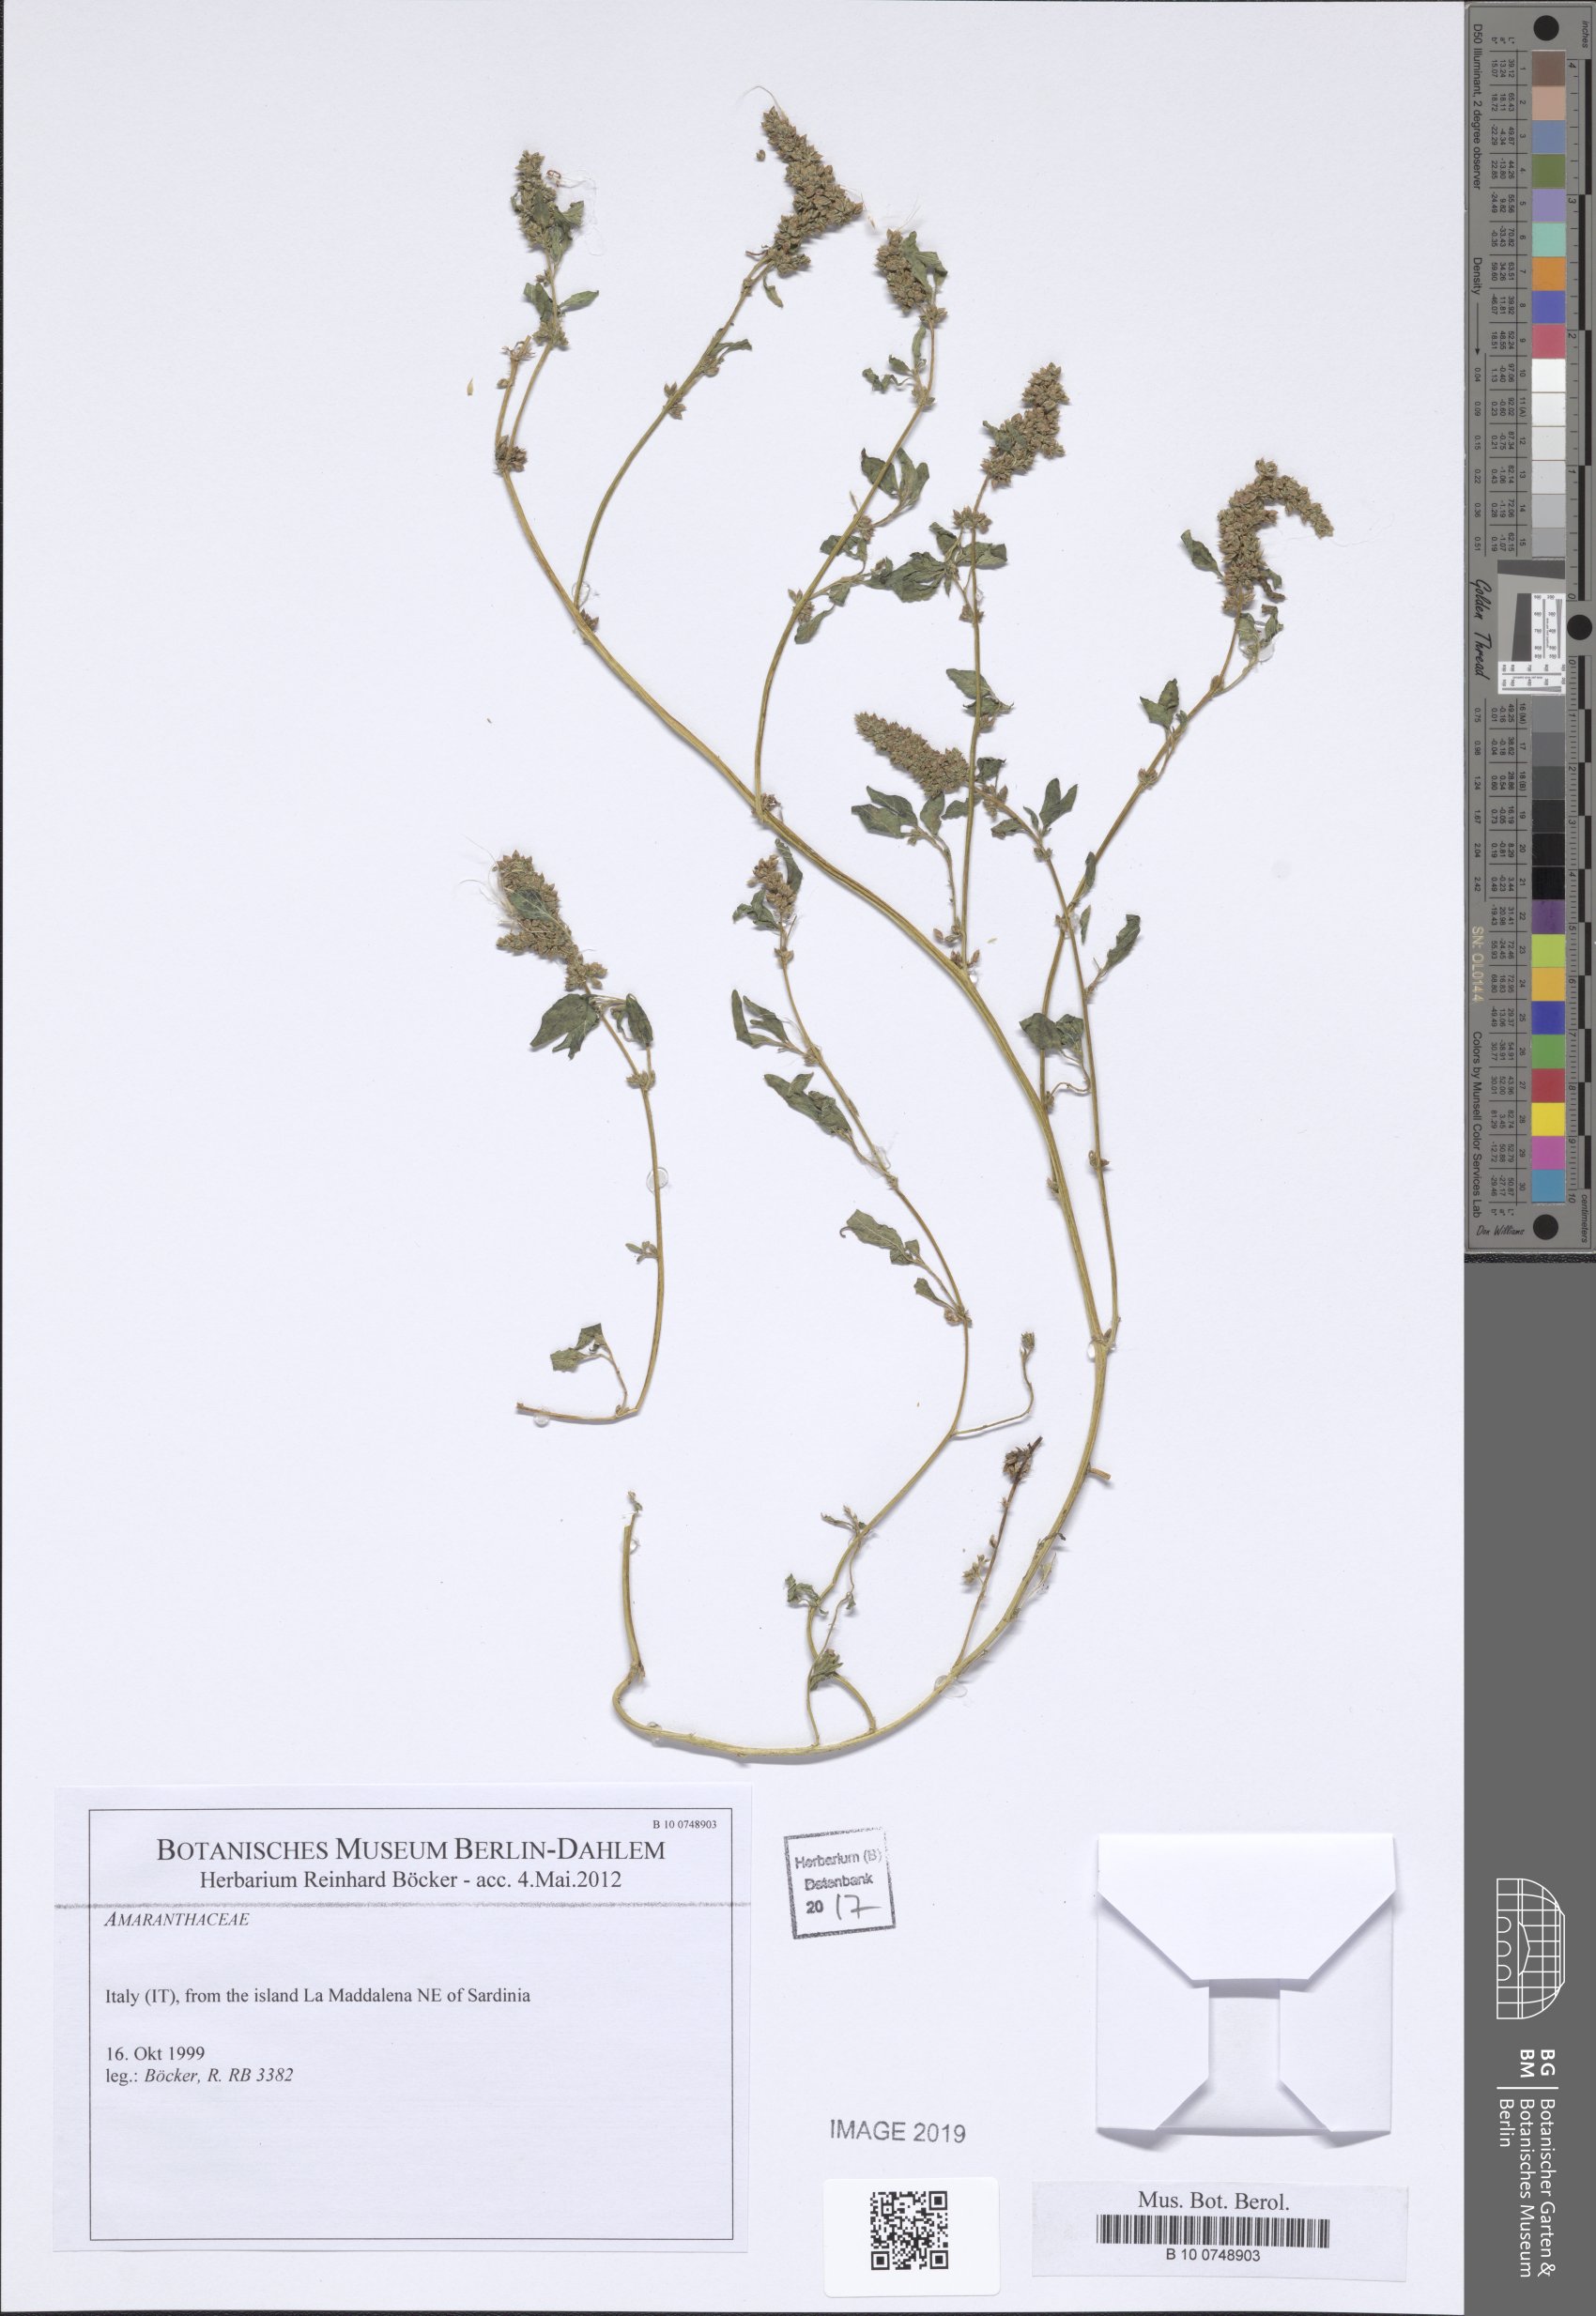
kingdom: Plantae
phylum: Tracheophyta
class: Magnoliopsida
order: Caryophyllales
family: Amaranthaceae
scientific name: Amaranthaceae
